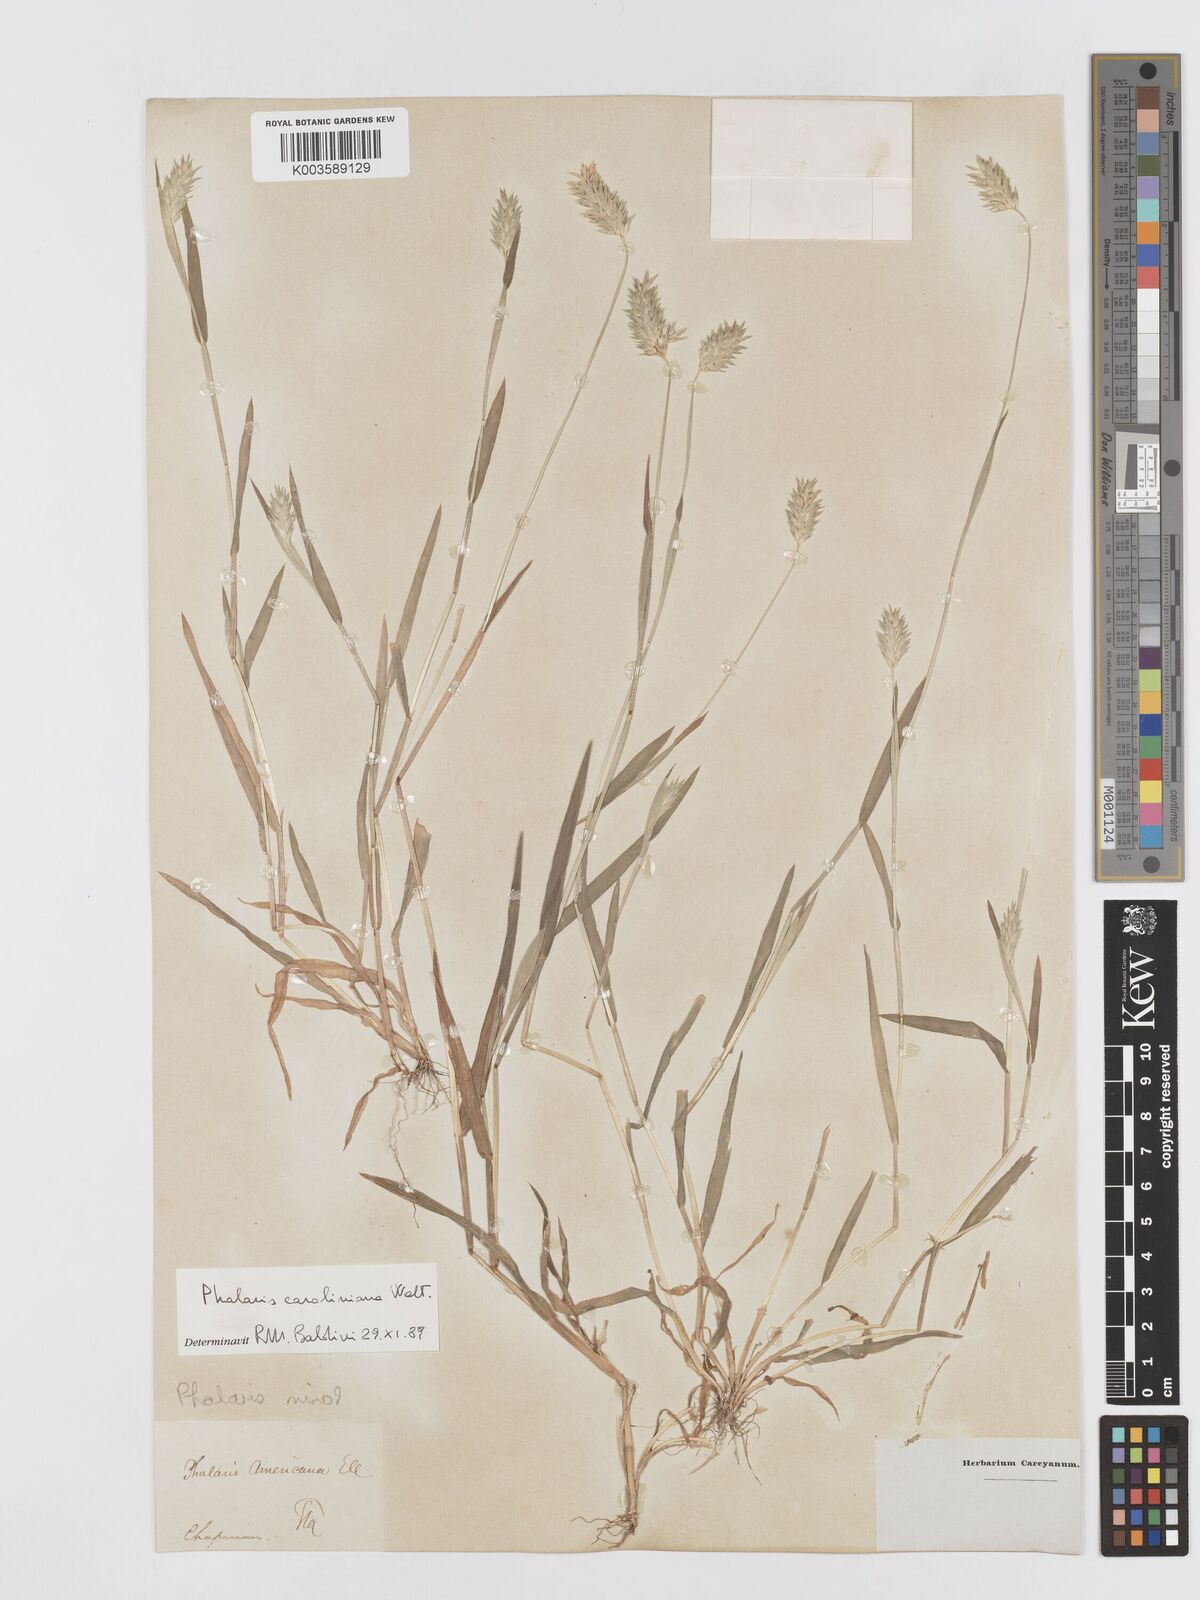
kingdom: Plantae
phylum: Tracheophyta
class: Liliopsida
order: Poales
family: Poaceae
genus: Phalaris
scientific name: Phalaris lemmonii
